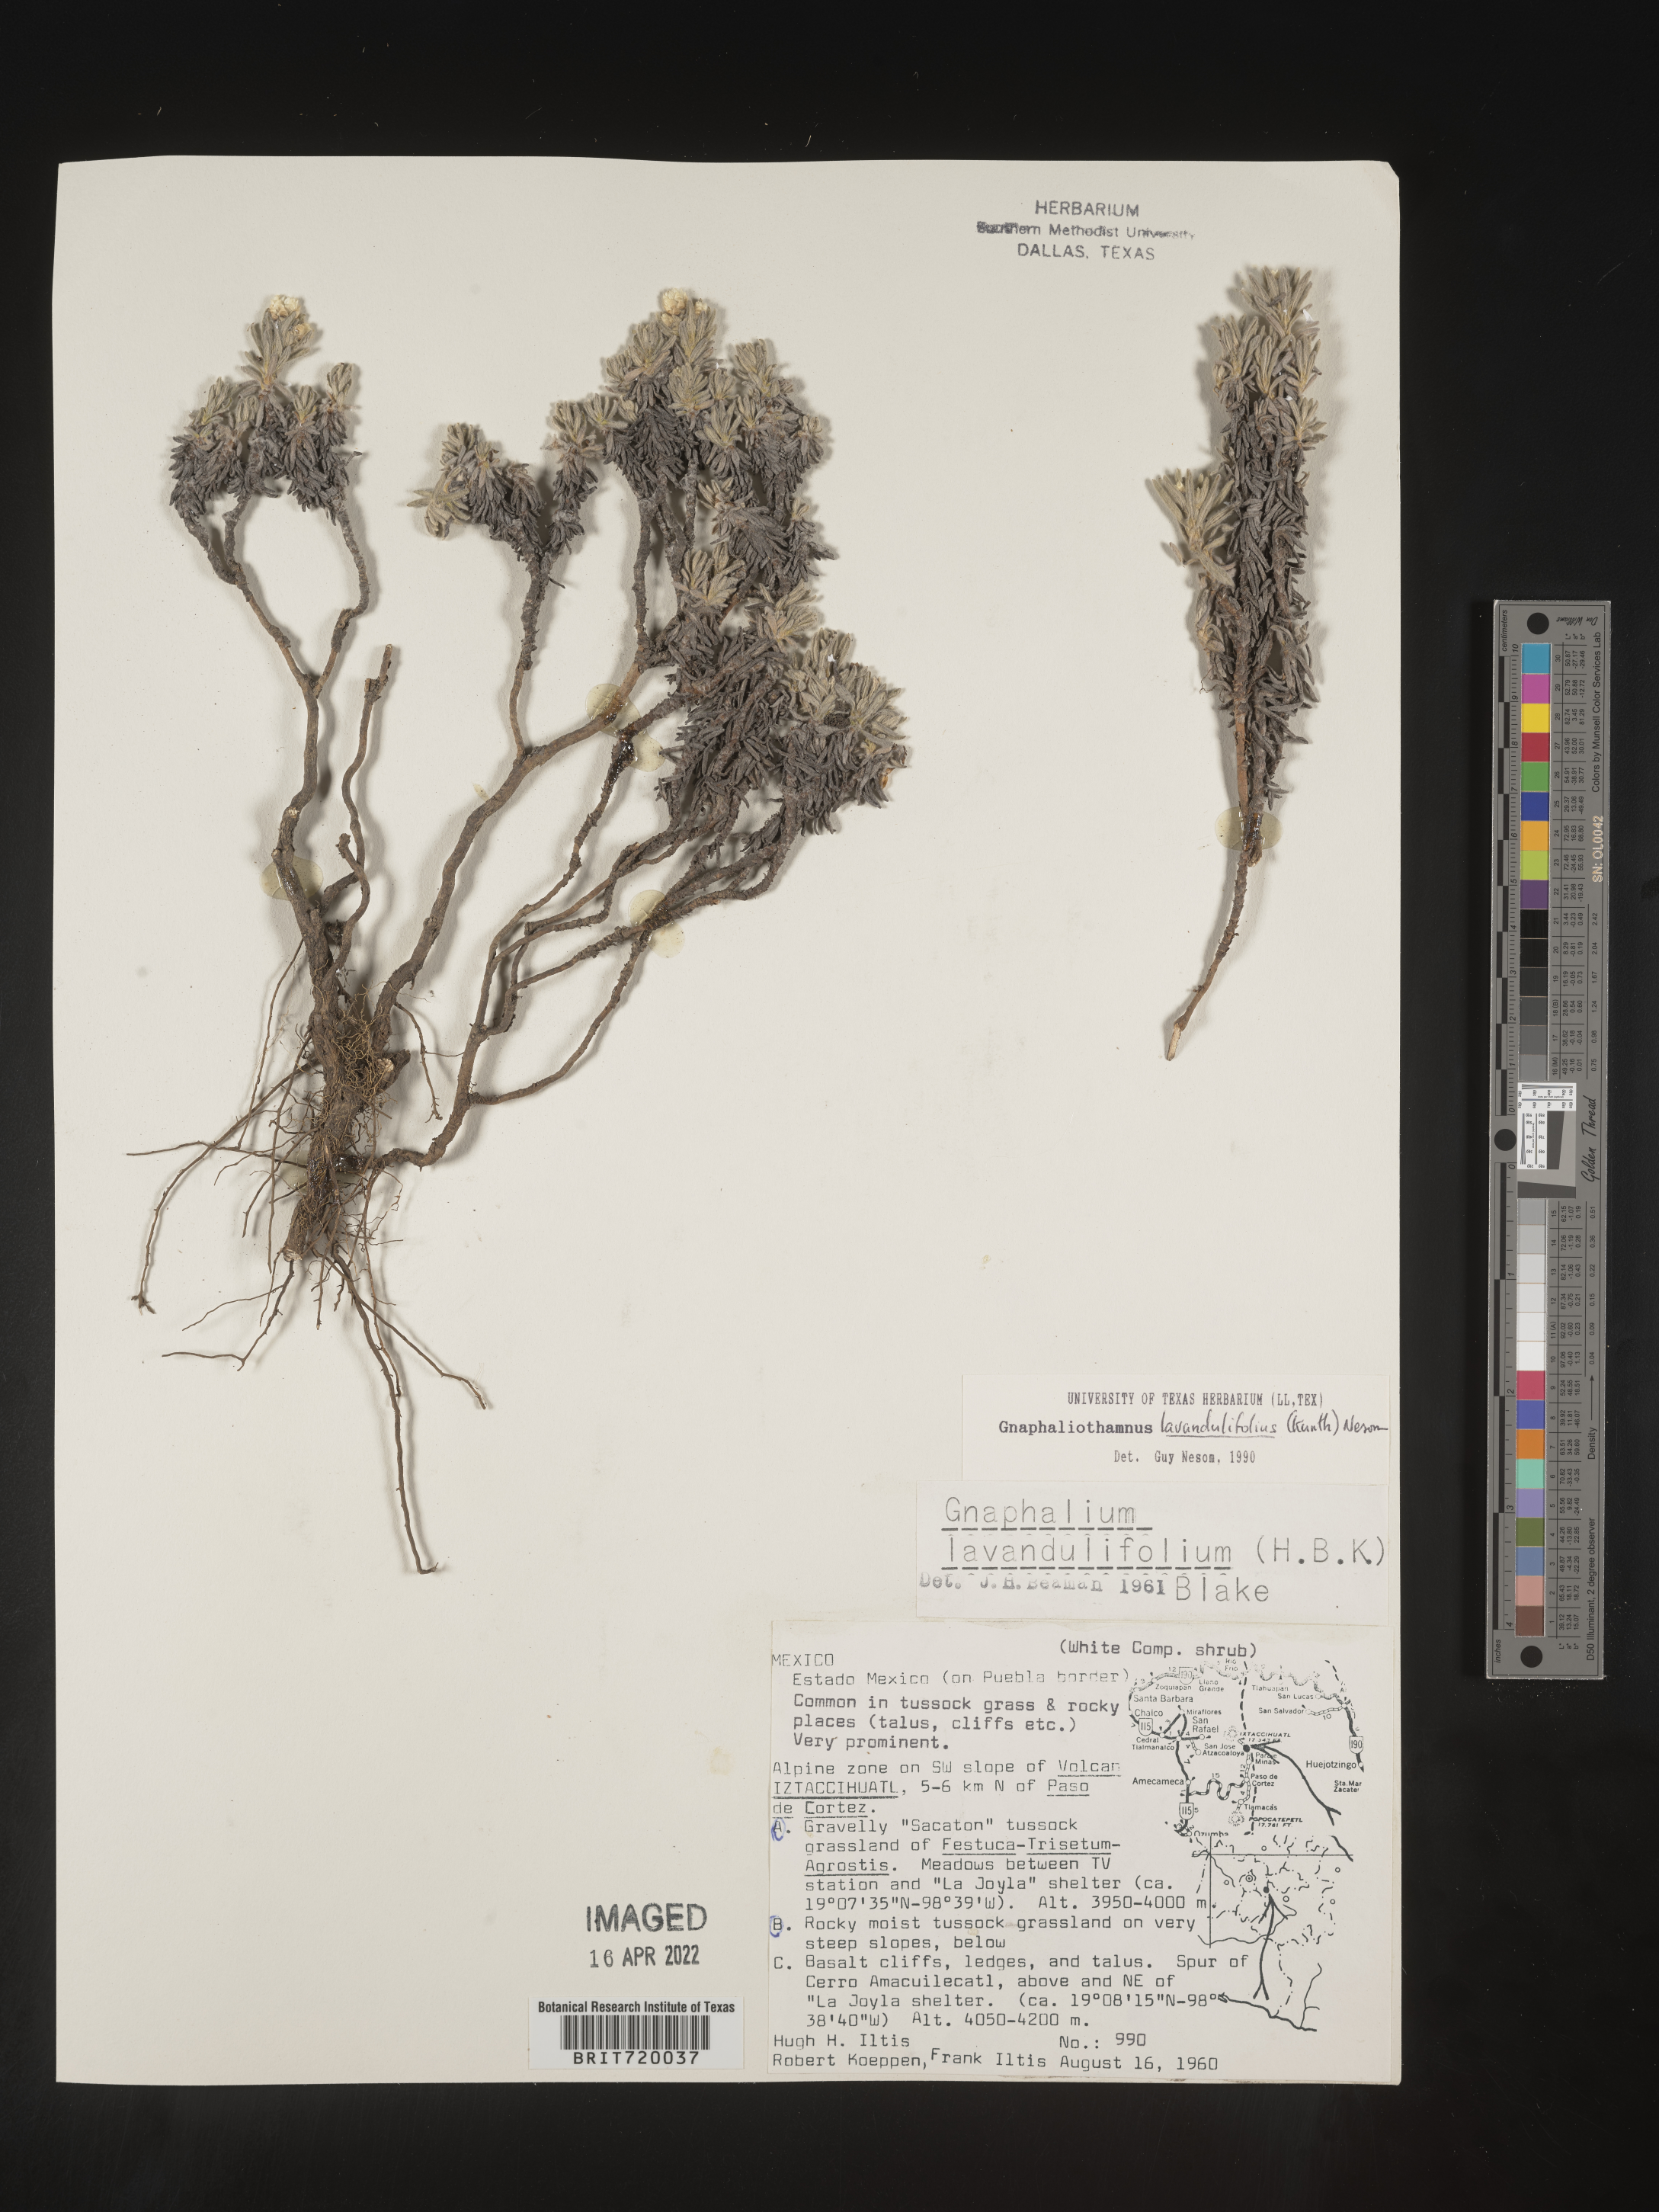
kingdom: Plantae
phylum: Tracheophyta
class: Magnoliopsida
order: Asterales
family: Asteraceae
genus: Gnaphaliothamnus
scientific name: Gnaphaliothamnus
